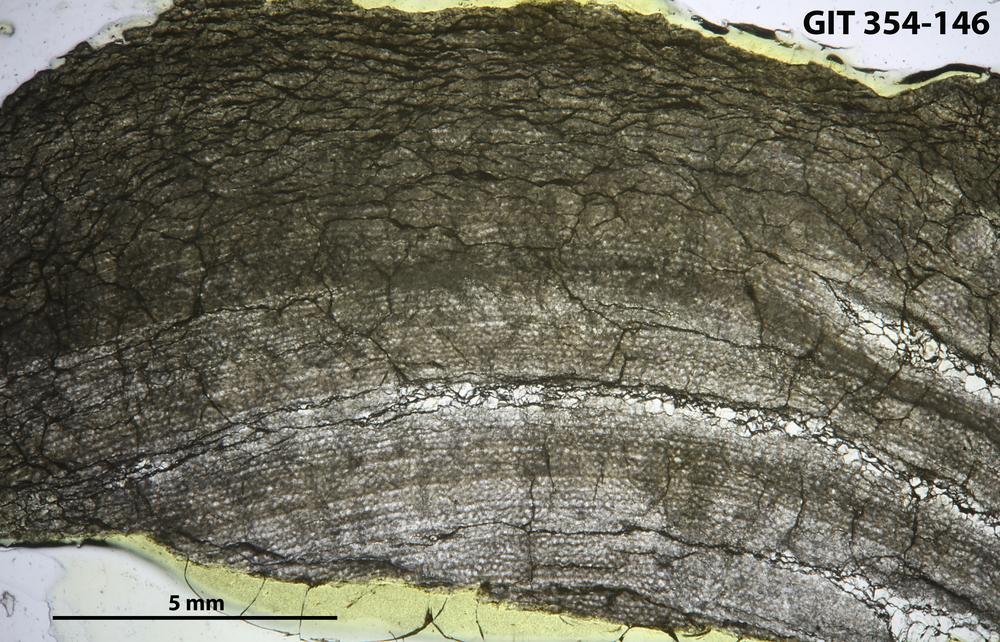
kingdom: Animalia
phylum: Porifera
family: Ecclimadictyidae
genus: Ecclimadictyon
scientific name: Ecclimadictyon Clathrodictyon microvesiculosum
